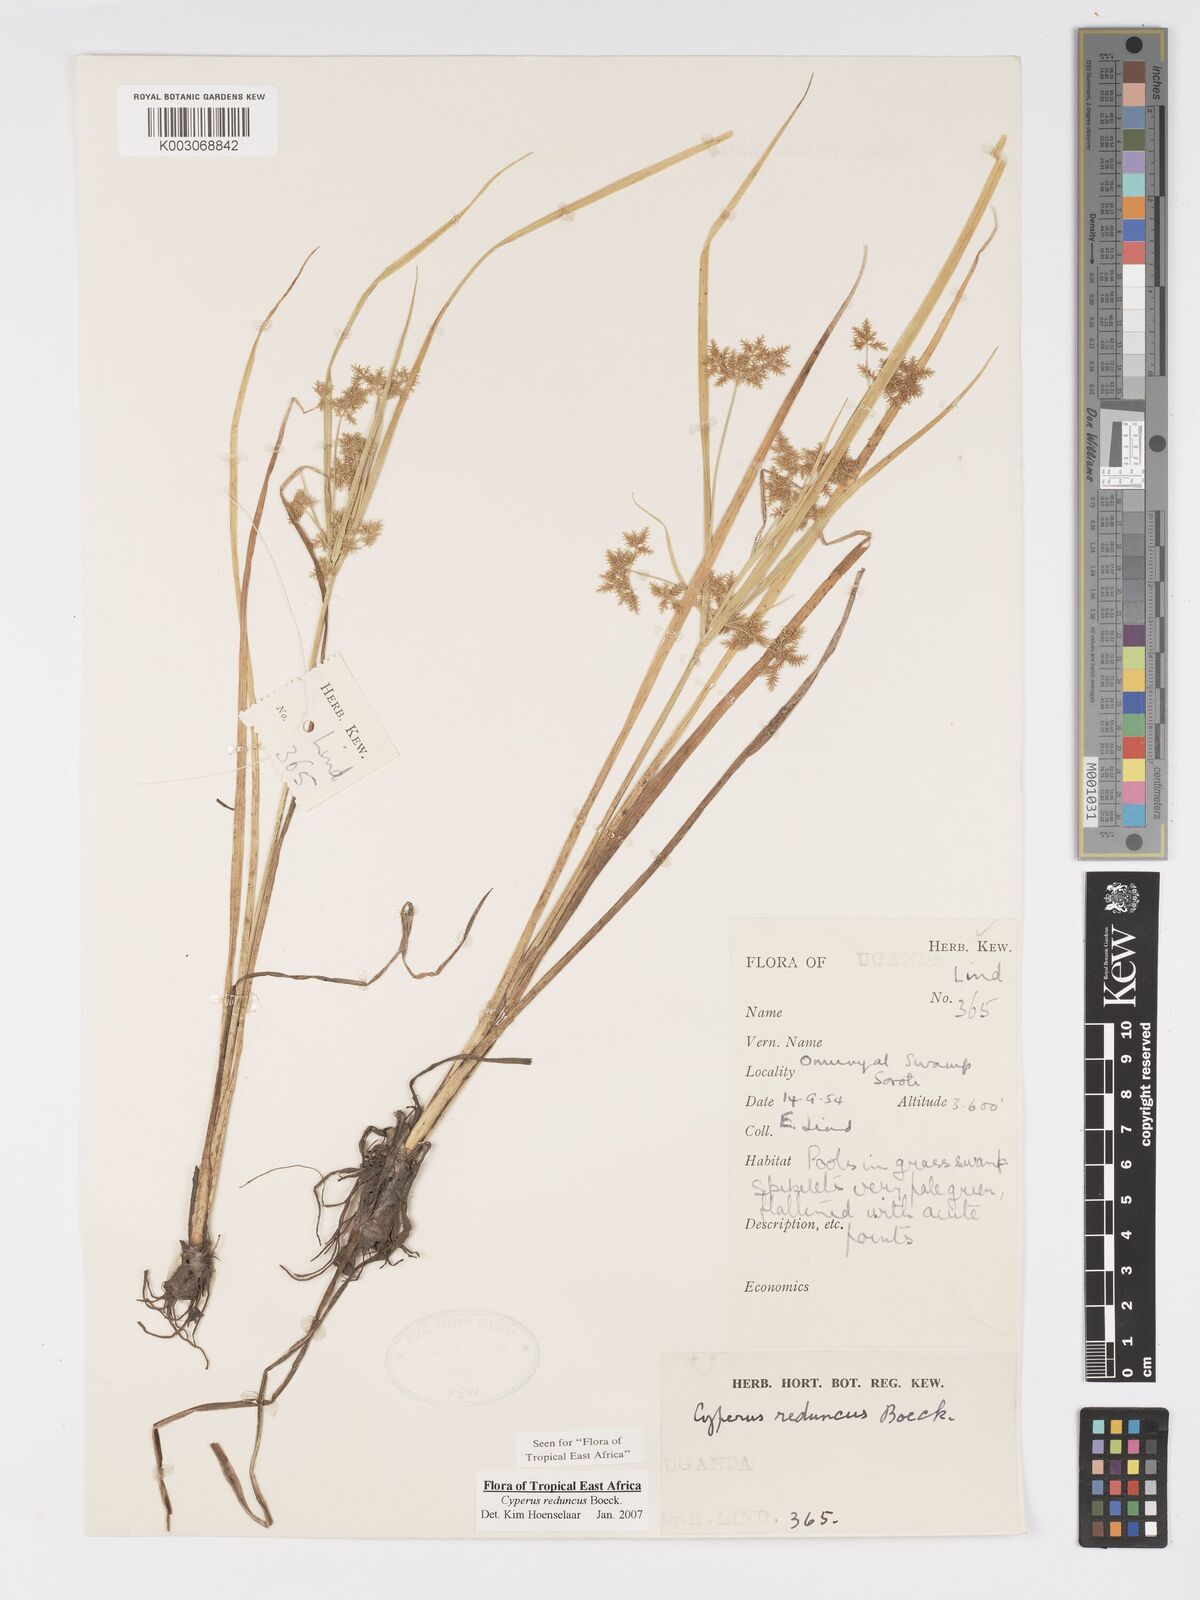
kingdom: Plantae
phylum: Tracheophyta
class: Liliopsida
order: Poales
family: Cyperaceae
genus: Cyperus
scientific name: Cyperus reduncus
